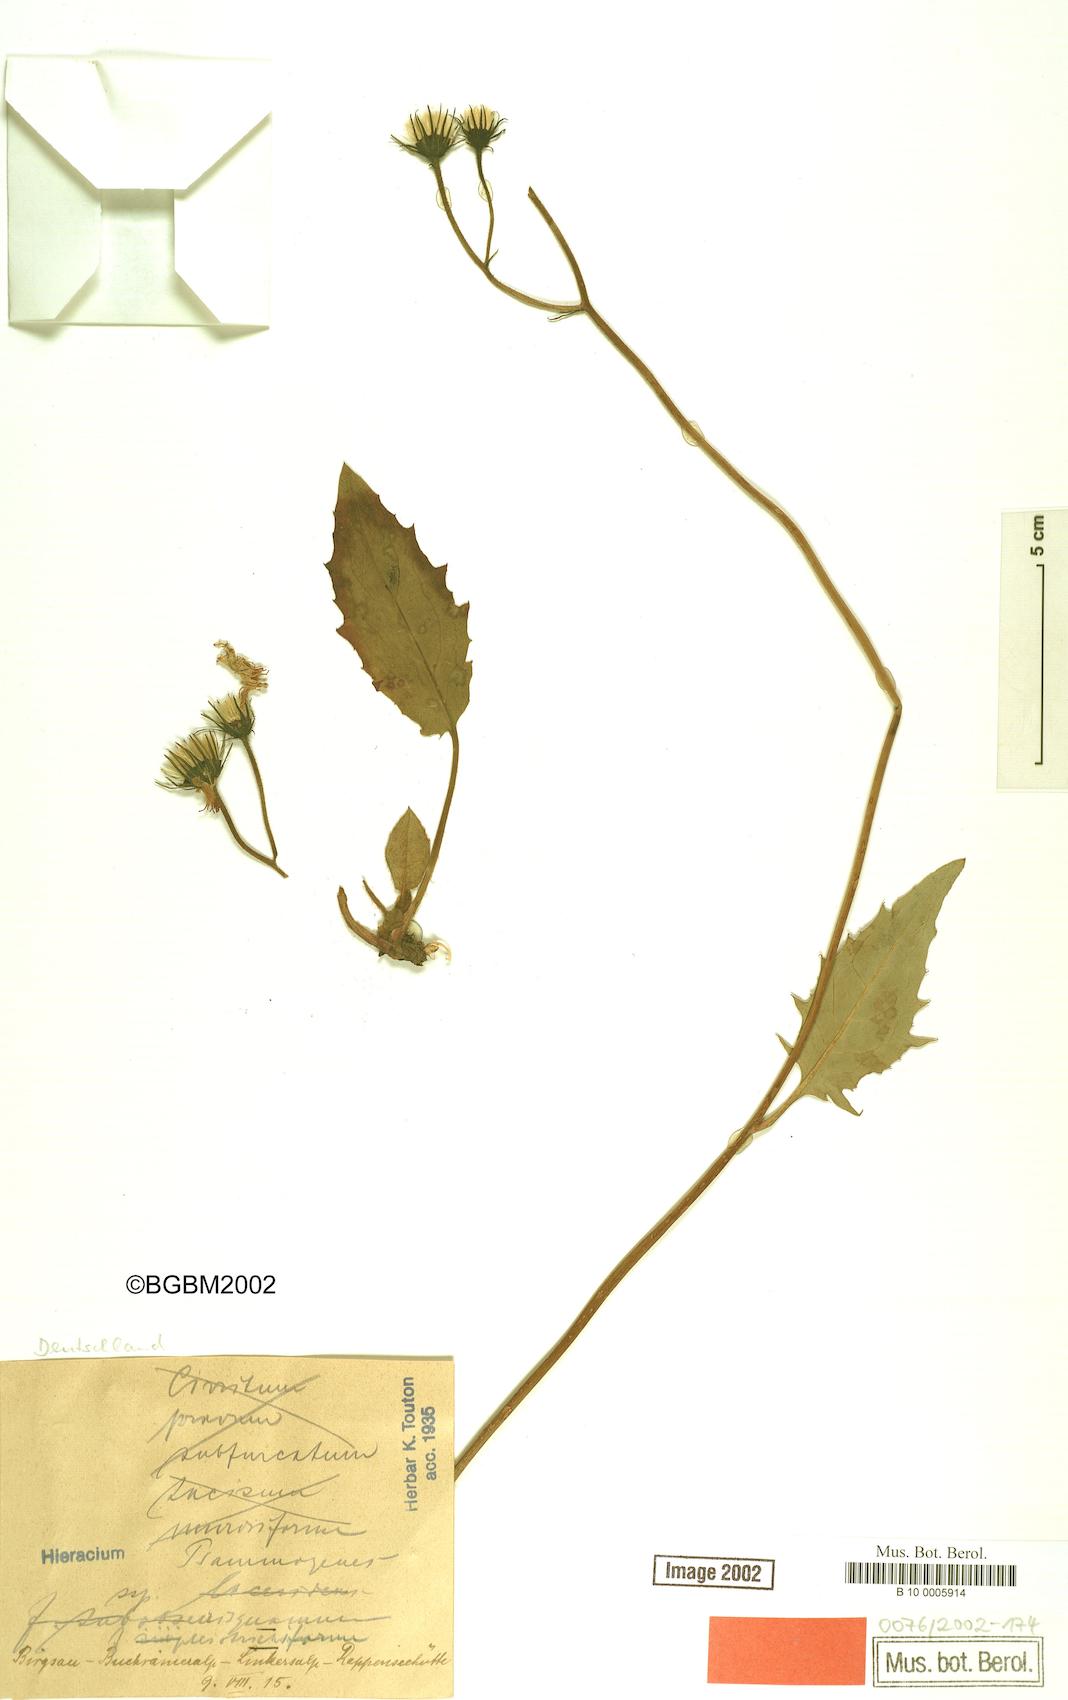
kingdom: Plantae
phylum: Tracheophyta
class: Magnoliopsida
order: Asterales
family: Asteraceae
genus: Hieracium
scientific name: Hieracium psammogenes
